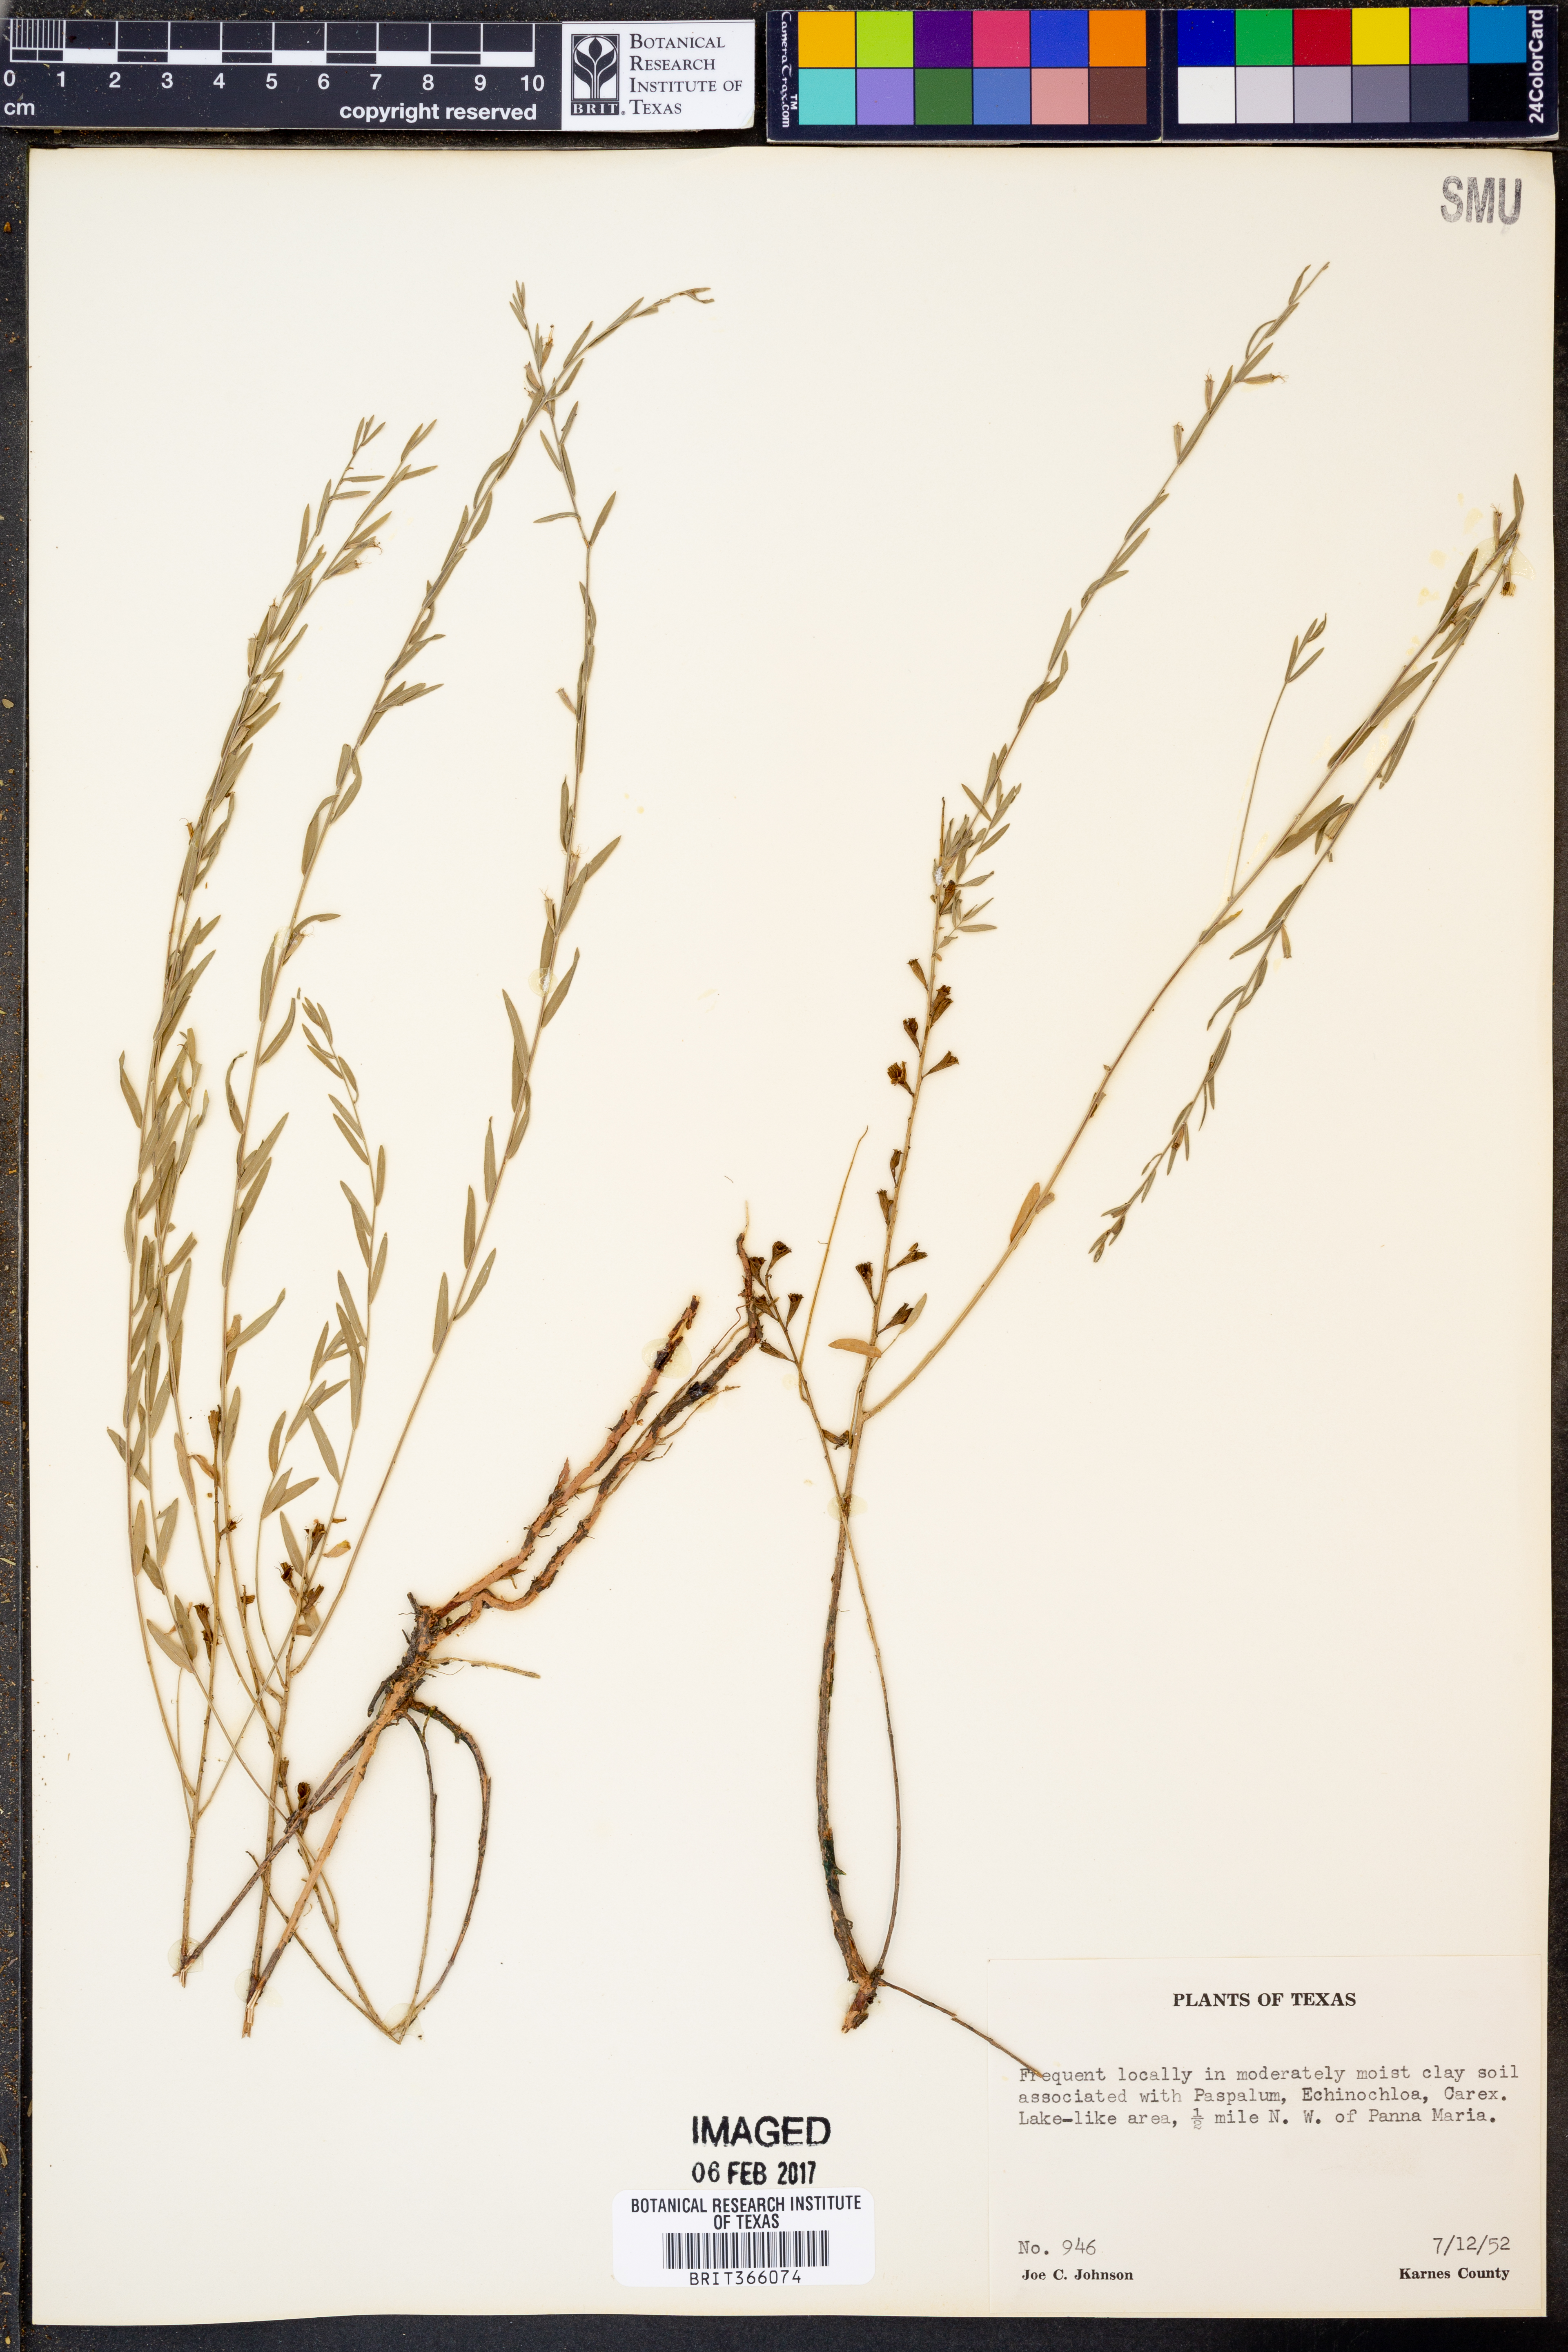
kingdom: Plantae
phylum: Tracheophyta
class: Magnoliopsida
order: Myrtales
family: Lythraceae
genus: Lythrum
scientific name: Lythrum californicum
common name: California loosestrife
